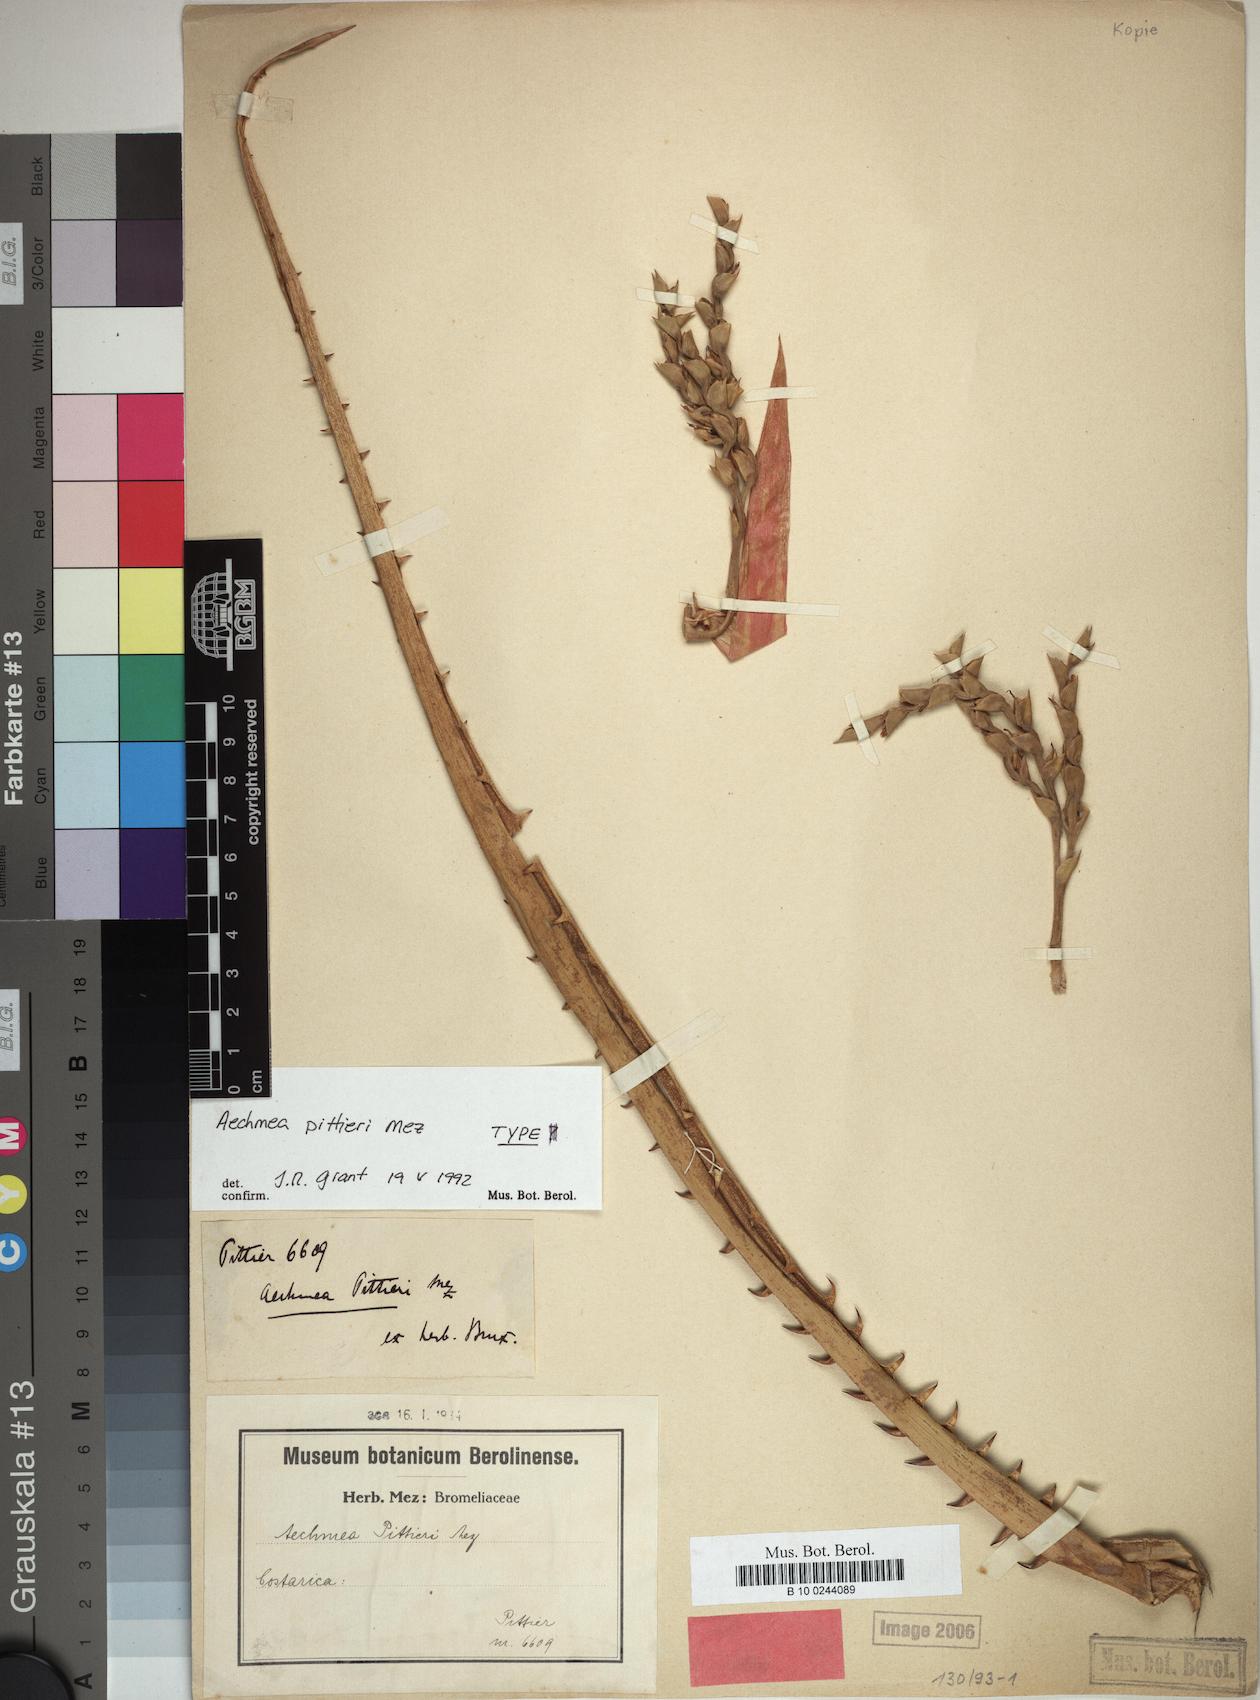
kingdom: Plantae
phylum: Tracheophyta
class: Liliopsida
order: Poales
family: Bromeliaceae
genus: Aechmea
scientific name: Aechmea pittieri
